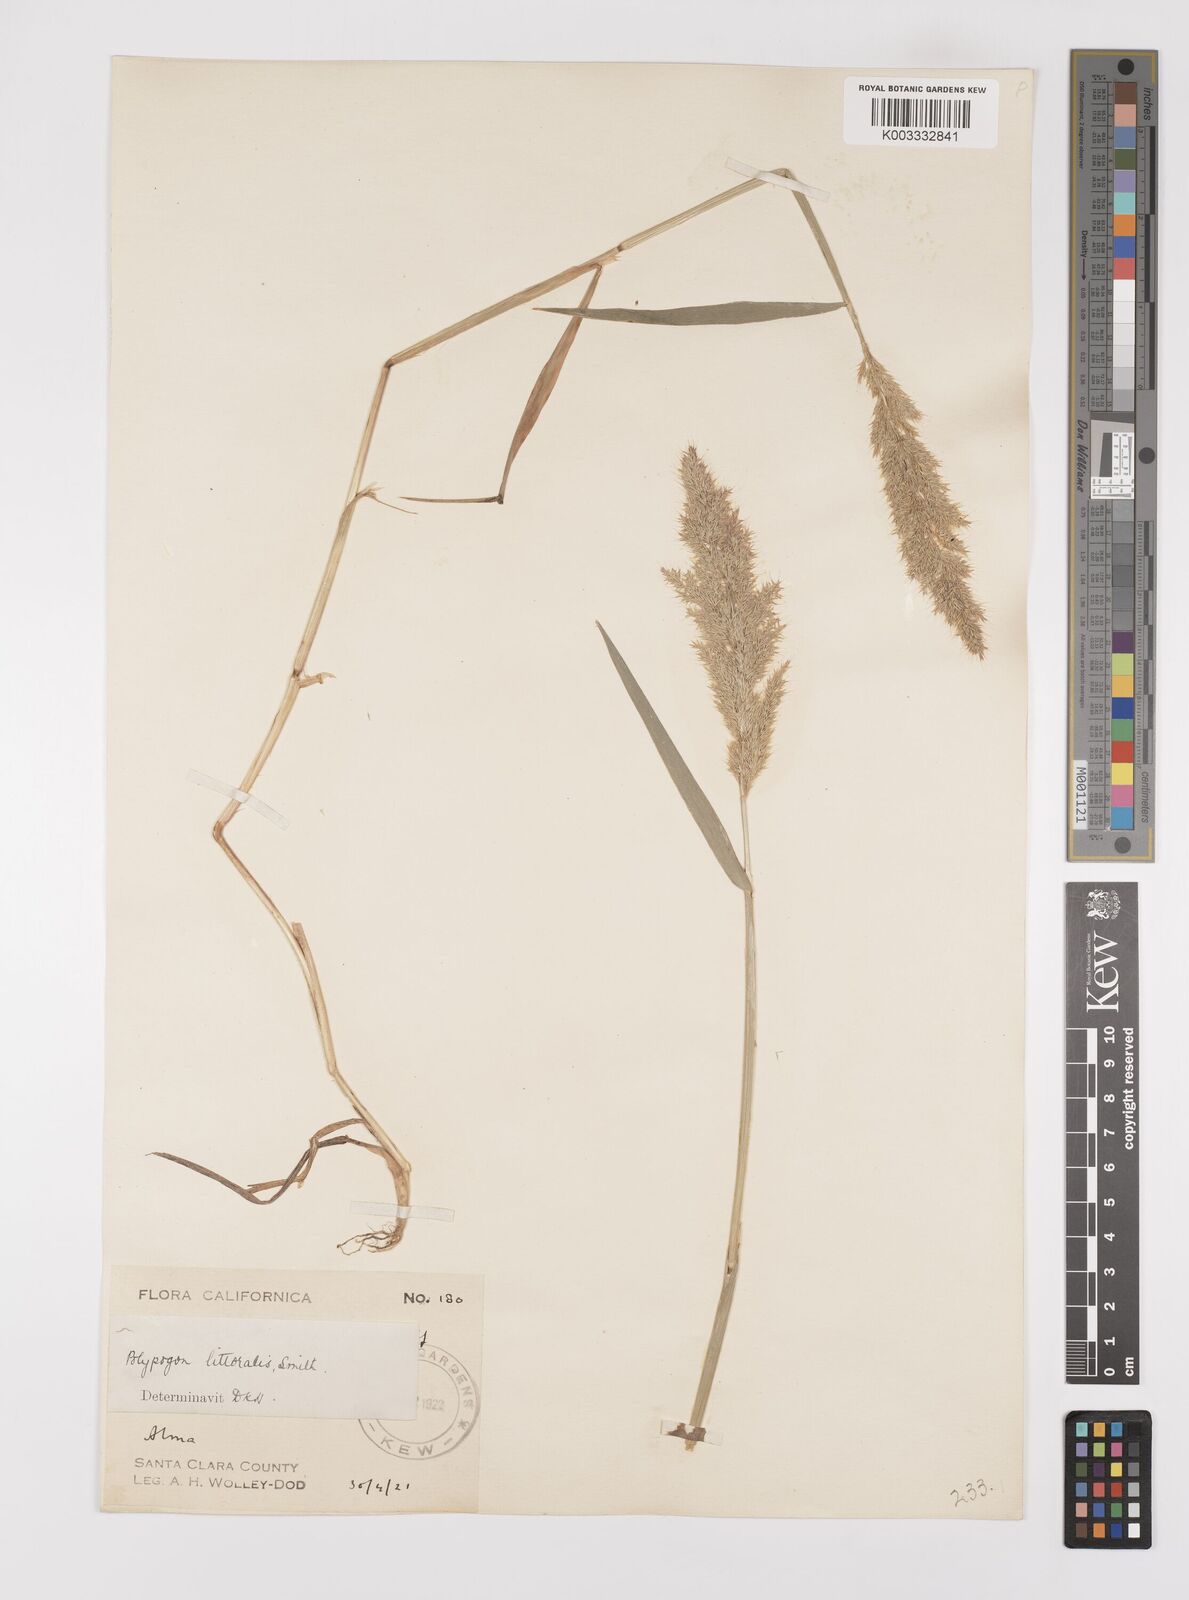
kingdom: Plantae
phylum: Tracheophyta
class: Liliopsida
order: Poales
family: Poaceae
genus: Polypogon
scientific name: Polypogon interruptus
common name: Ditch polypogon
